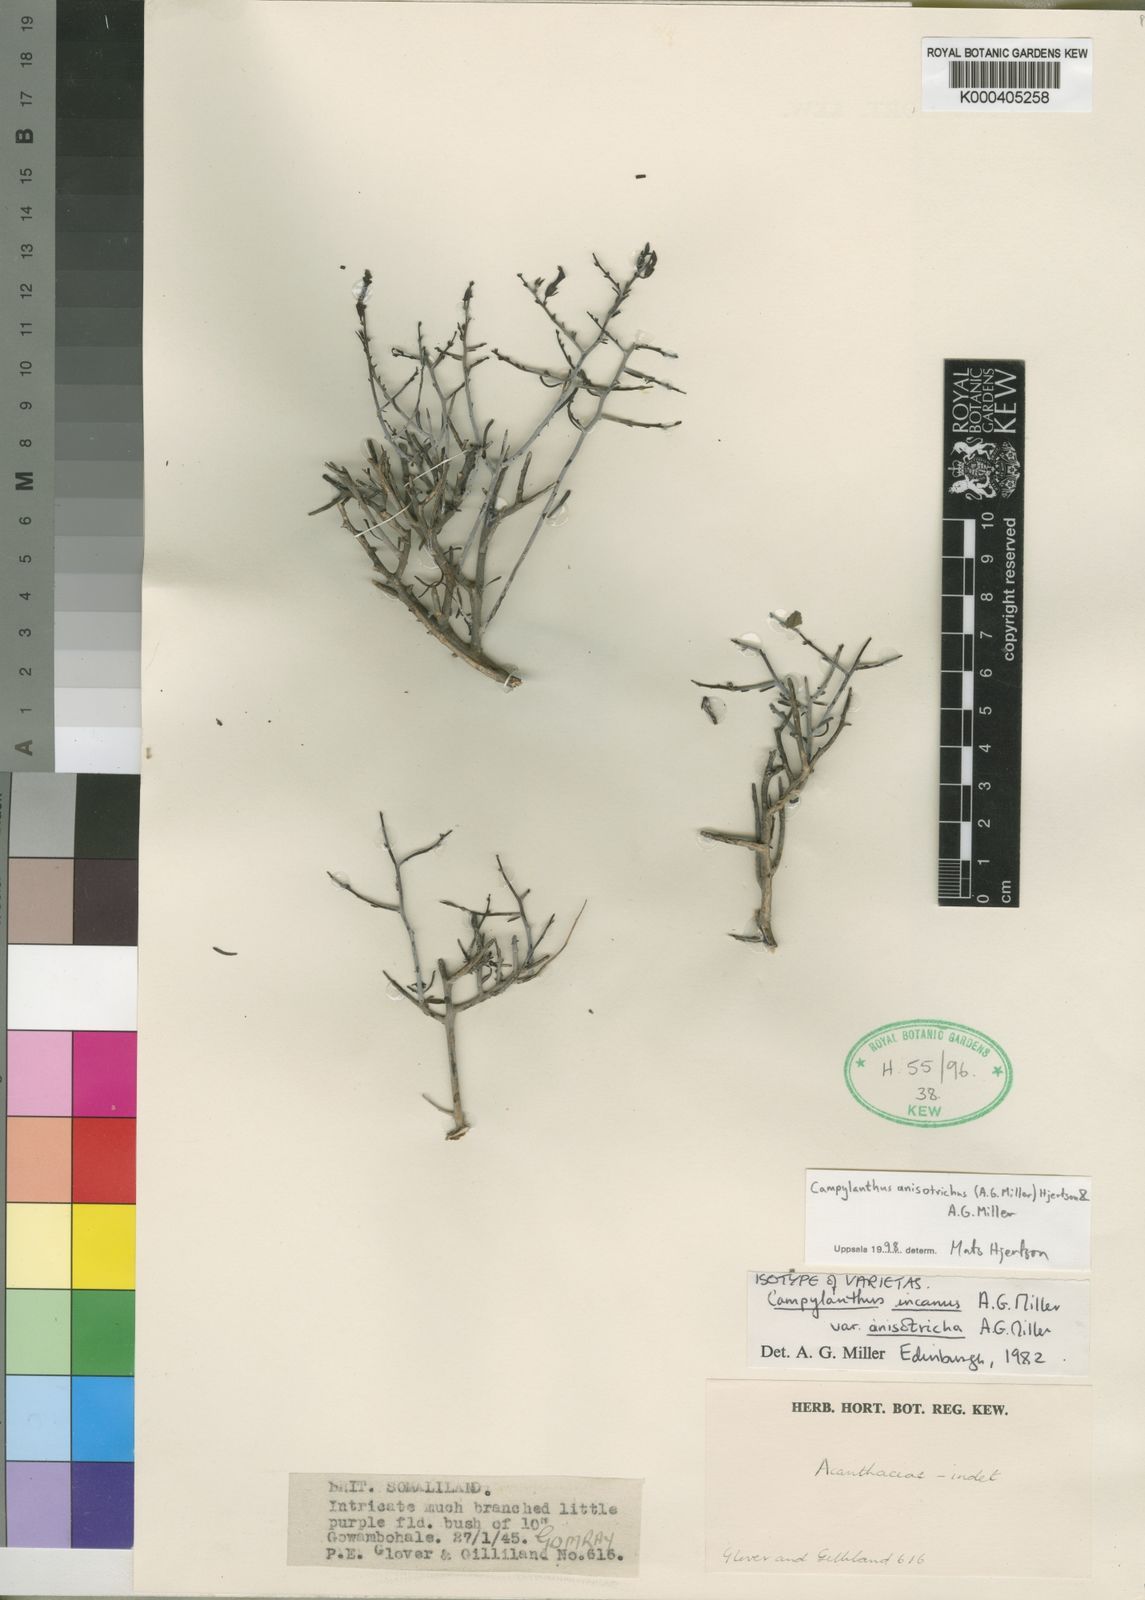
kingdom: Plantae
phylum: Tracheophyta
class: Magnoliopsida
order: Lamiales
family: Plantaginaceae
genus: Campylanthus
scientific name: Campylanthus anisotrichus
